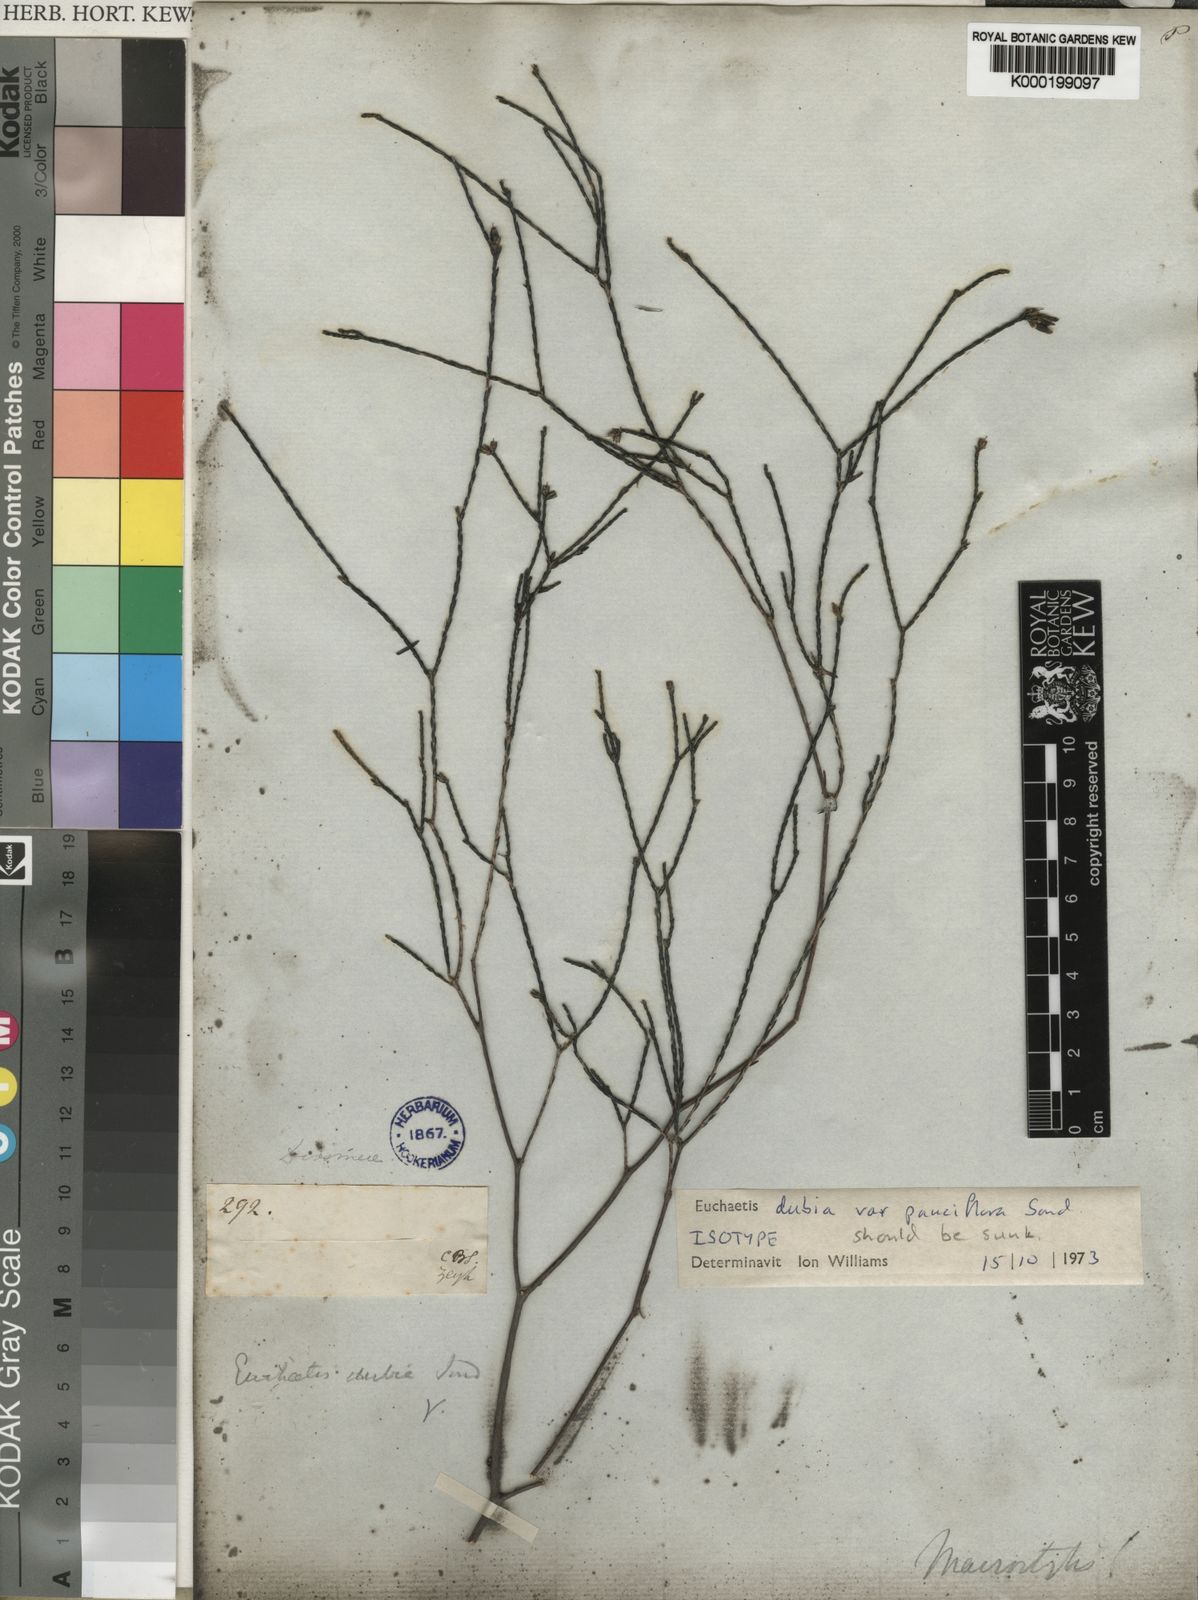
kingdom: Plantae
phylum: Tracheophyta
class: Magnoliopsida
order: Sapindales
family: Rutaceae
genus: Macrostylis
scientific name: Macrostylis cassiopoides
